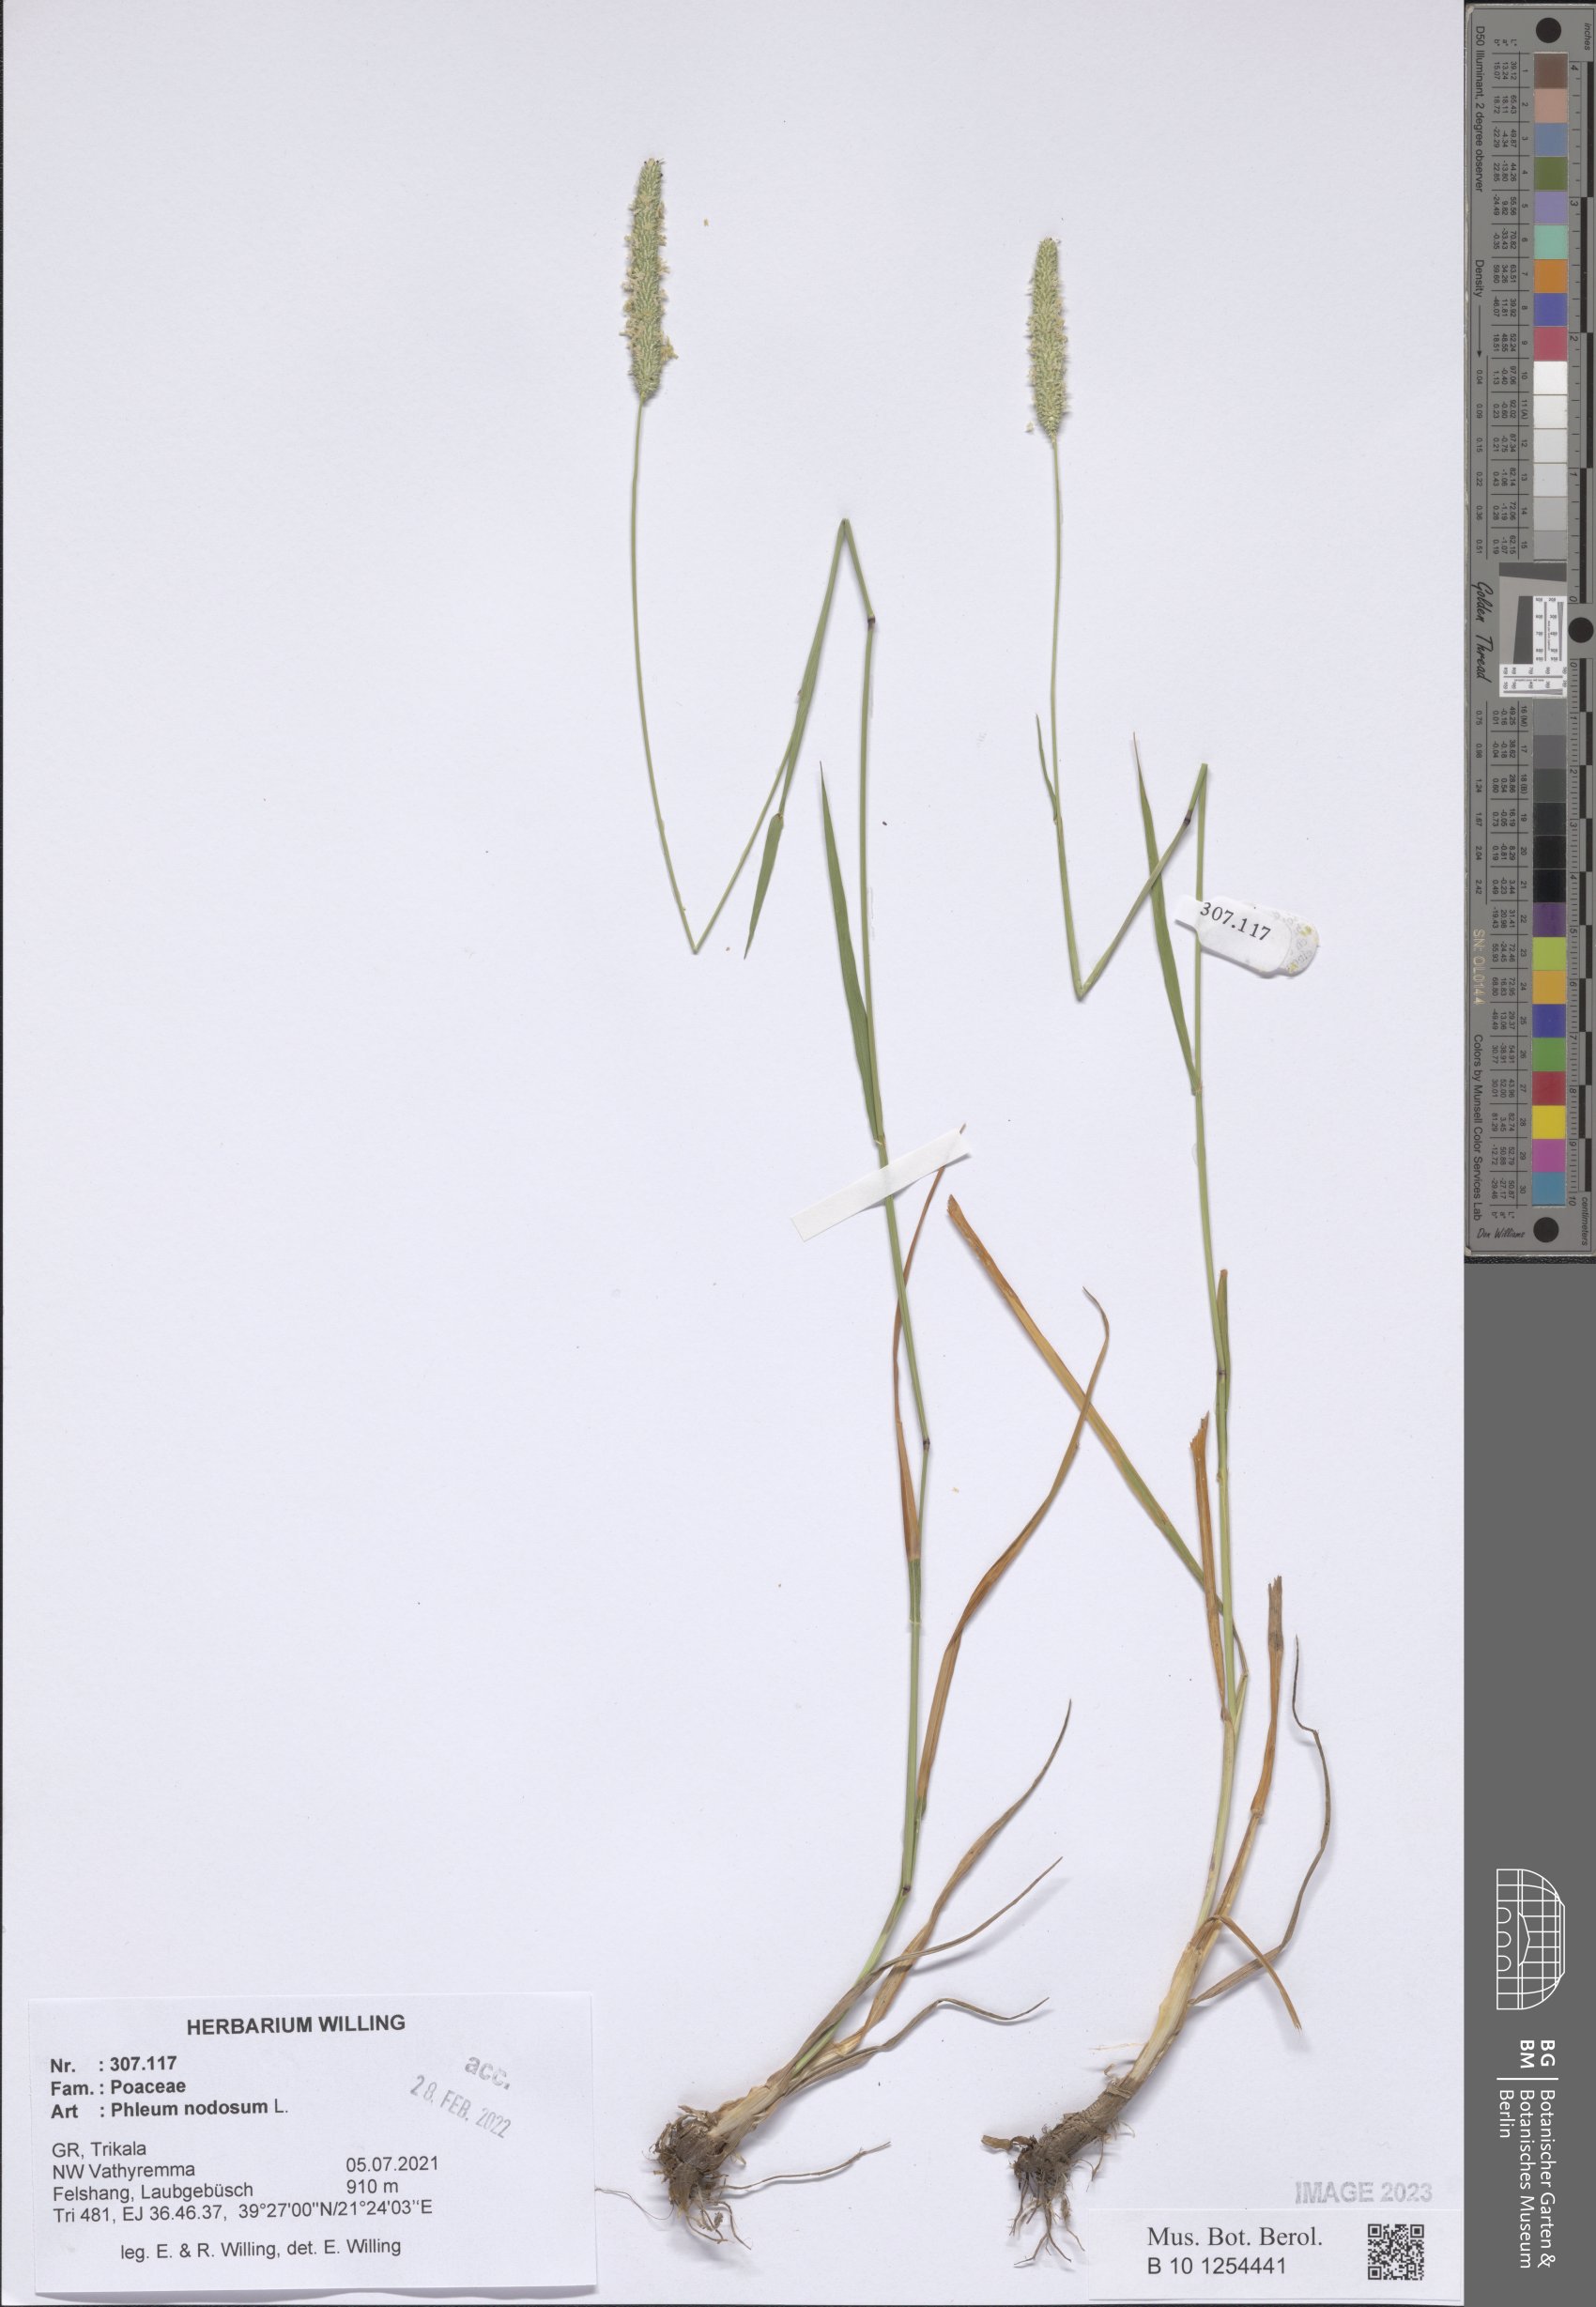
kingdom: Plantae
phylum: Tracheophyta
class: Liliopsida
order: Poales
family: Poaceae
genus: Phleum
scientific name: Phleum pratense
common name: Timothy grass
